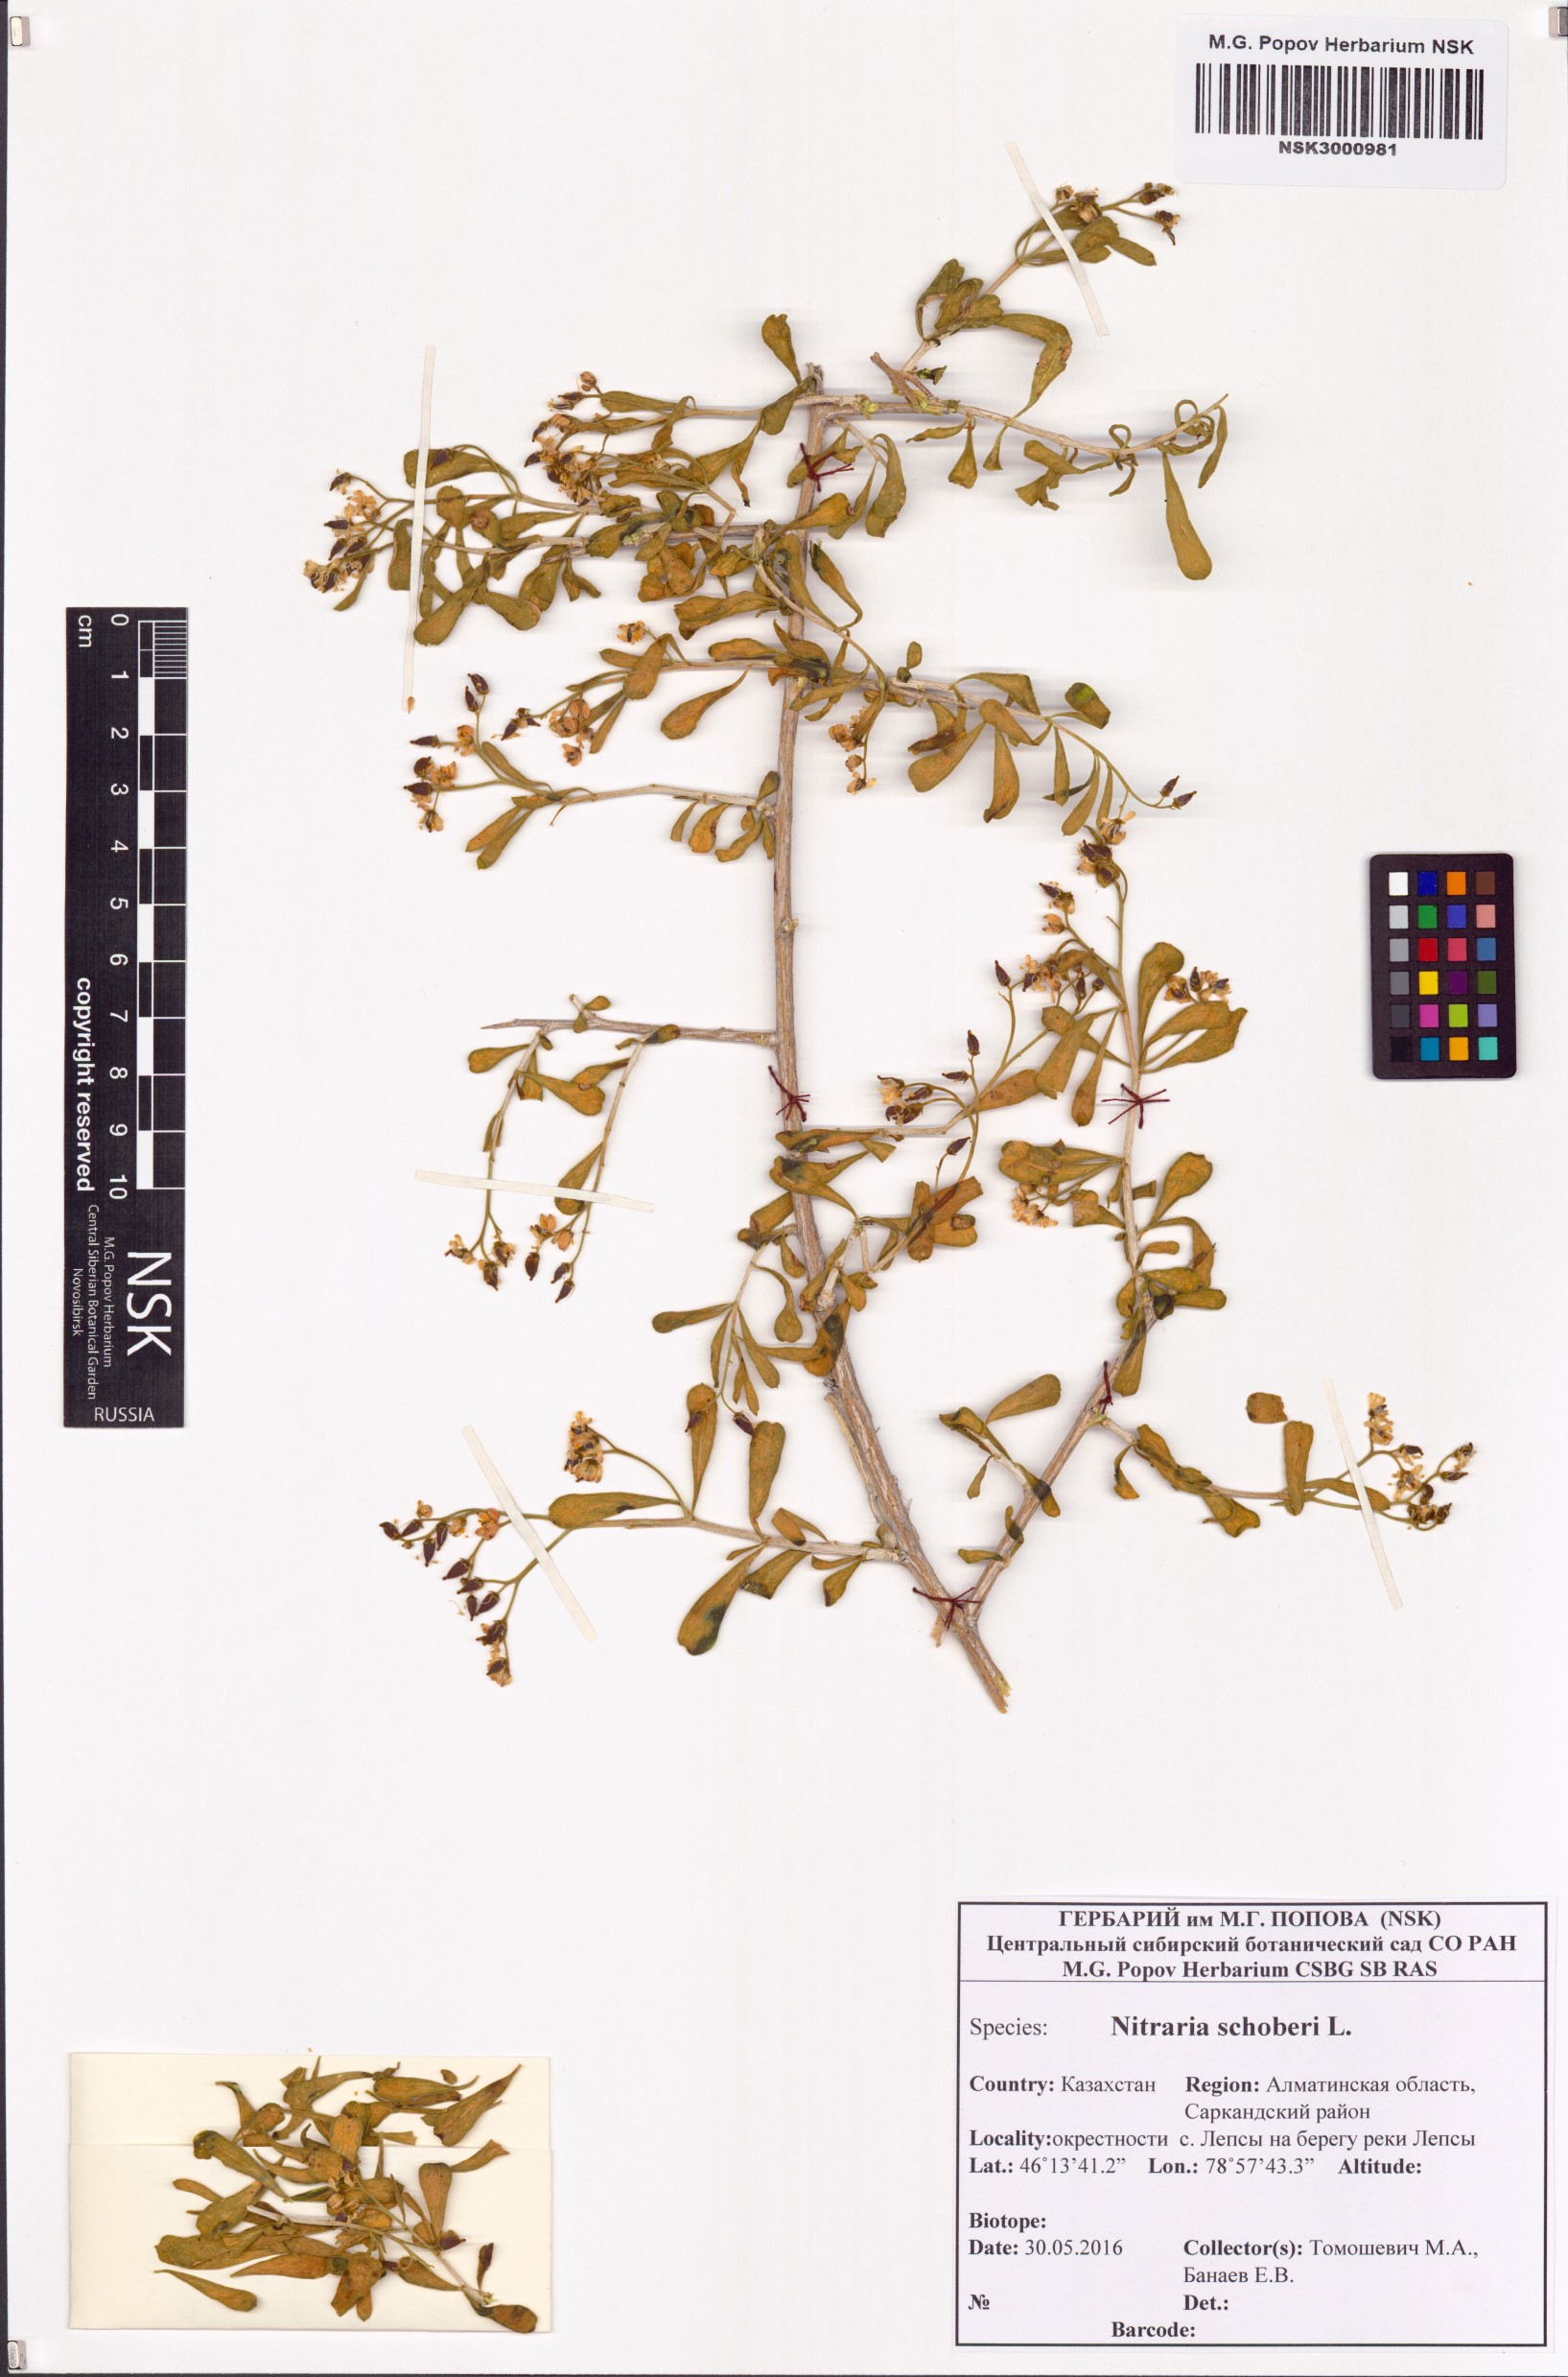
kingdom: Plantae
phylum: Tracheophyta
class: Magnoliopsida
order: Sapindales
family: Nitrariaceae
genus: Nitraria
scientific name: Nitraria schoberi
